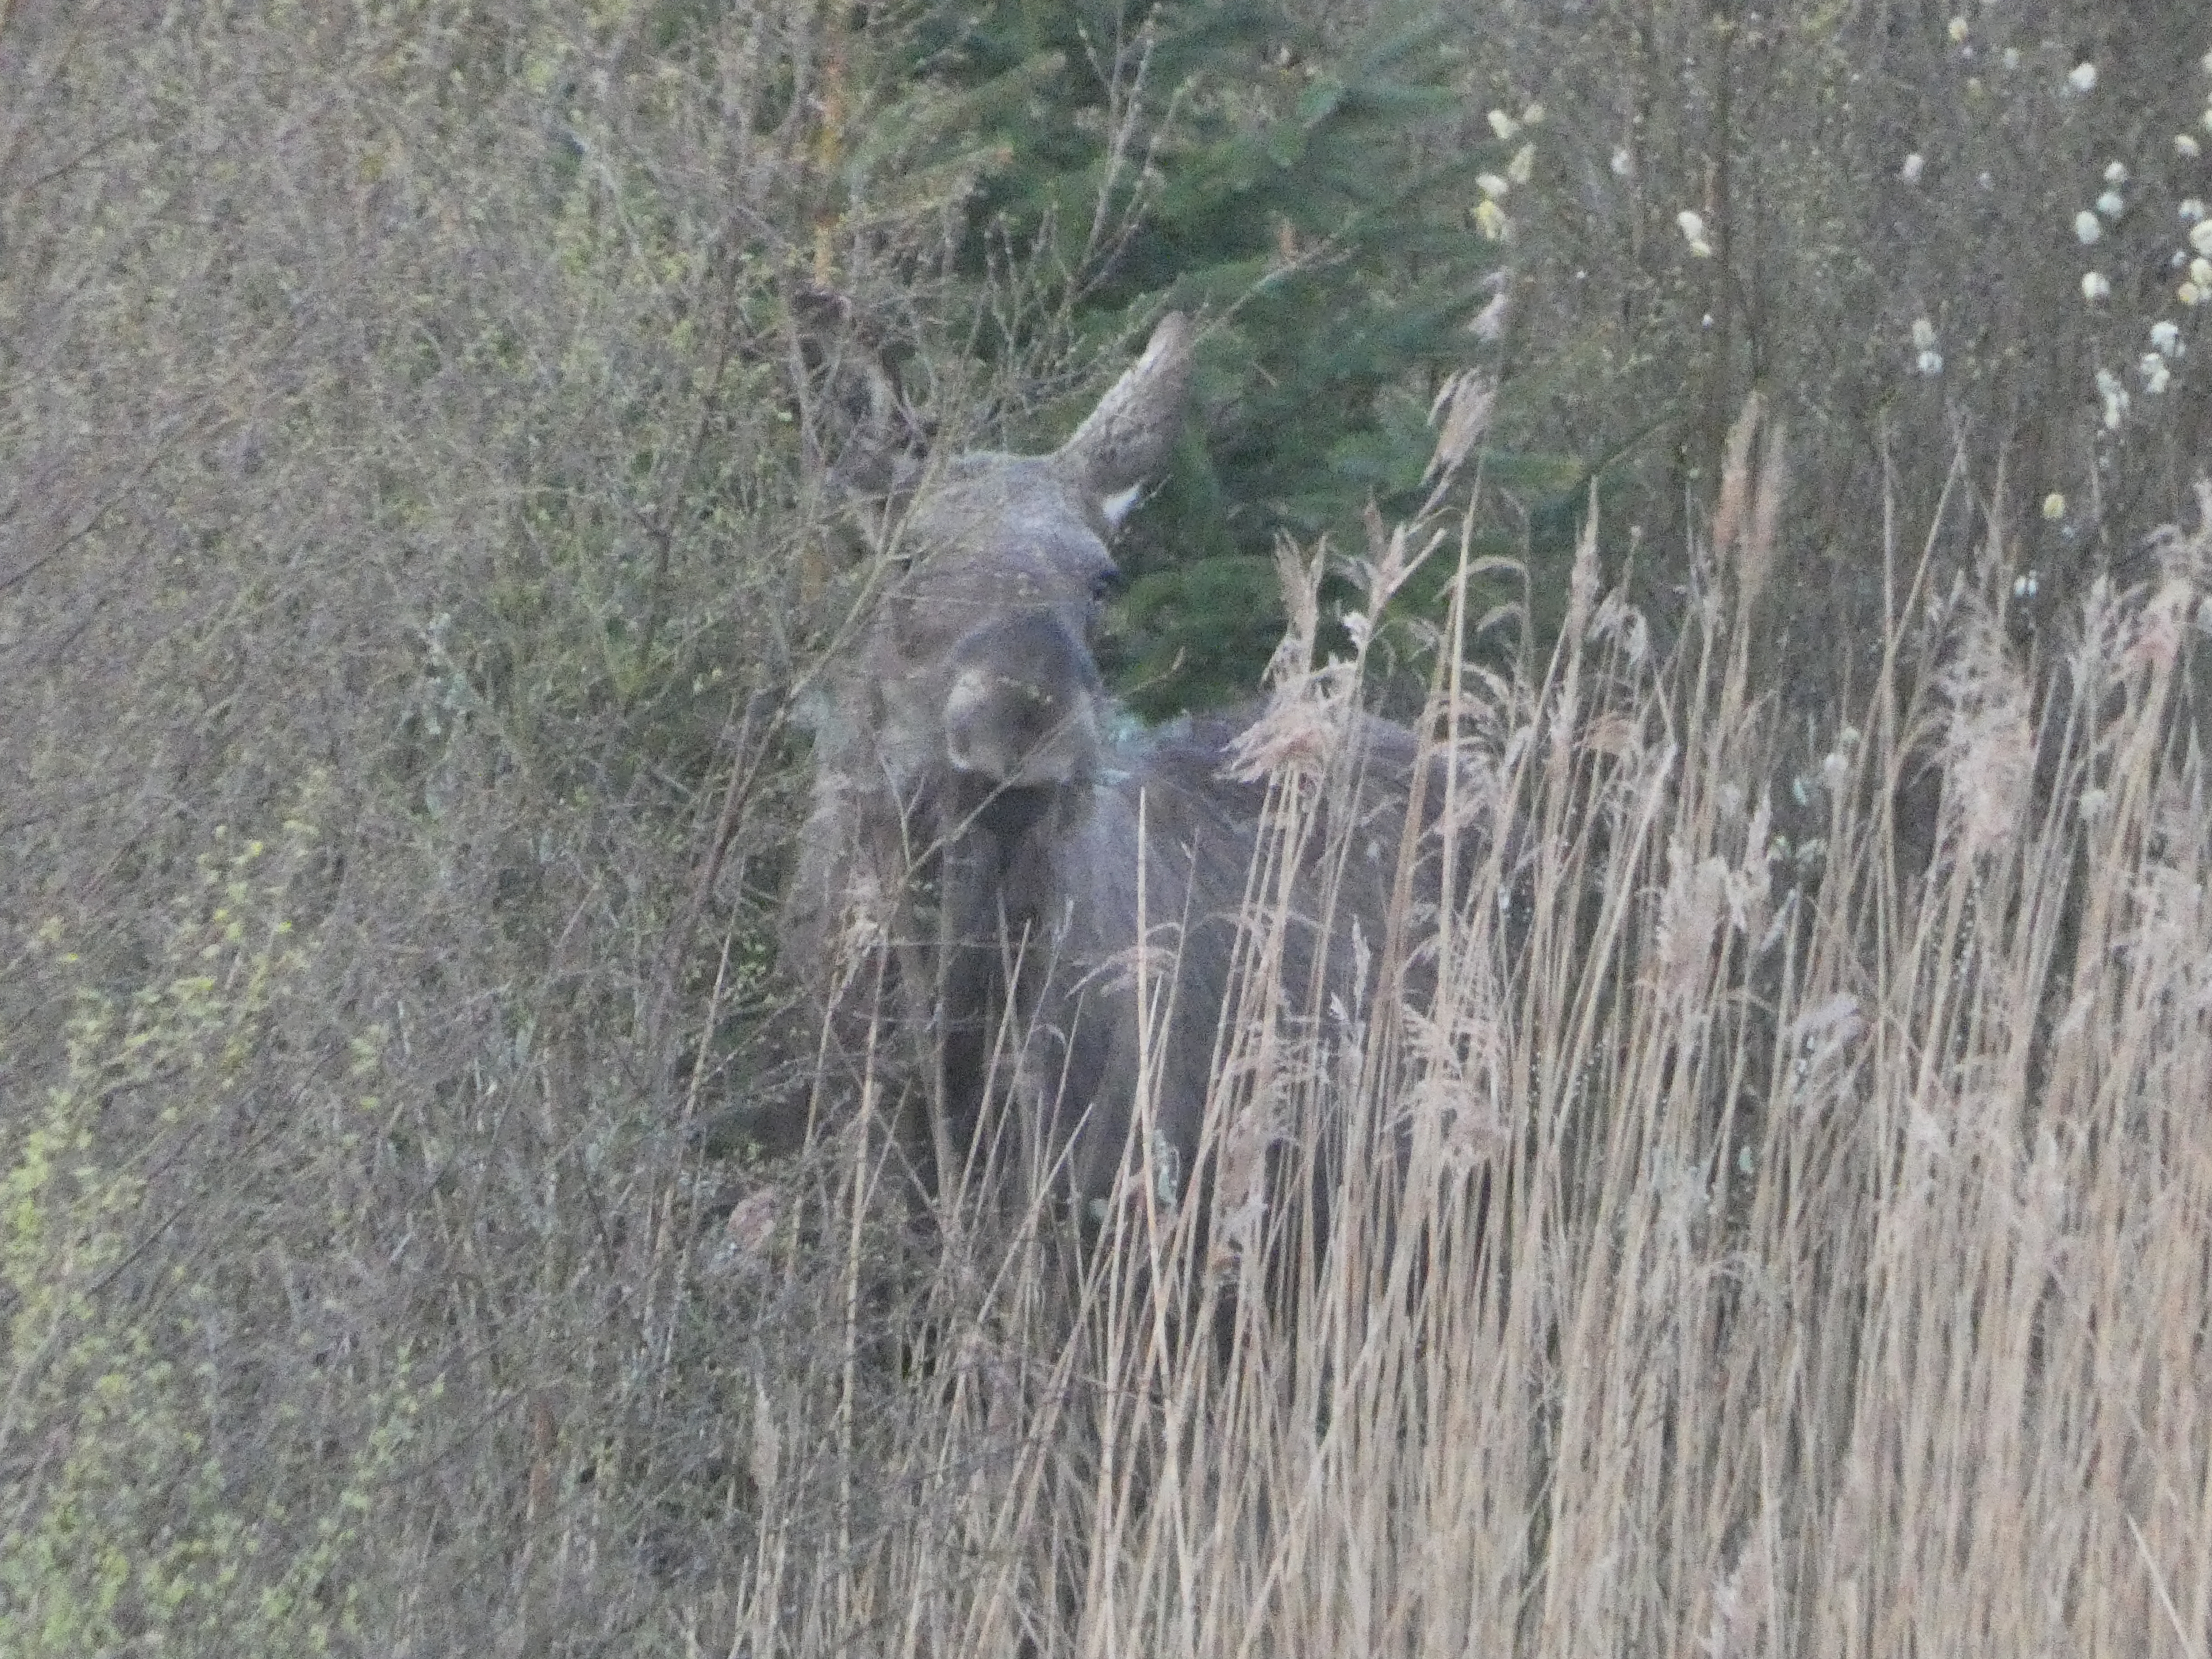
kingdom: Animalia
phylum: Chordata
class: Mammalia
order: Artiodactyla
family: Cervidae
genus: Alces
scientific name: Alces alces
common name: Elg
